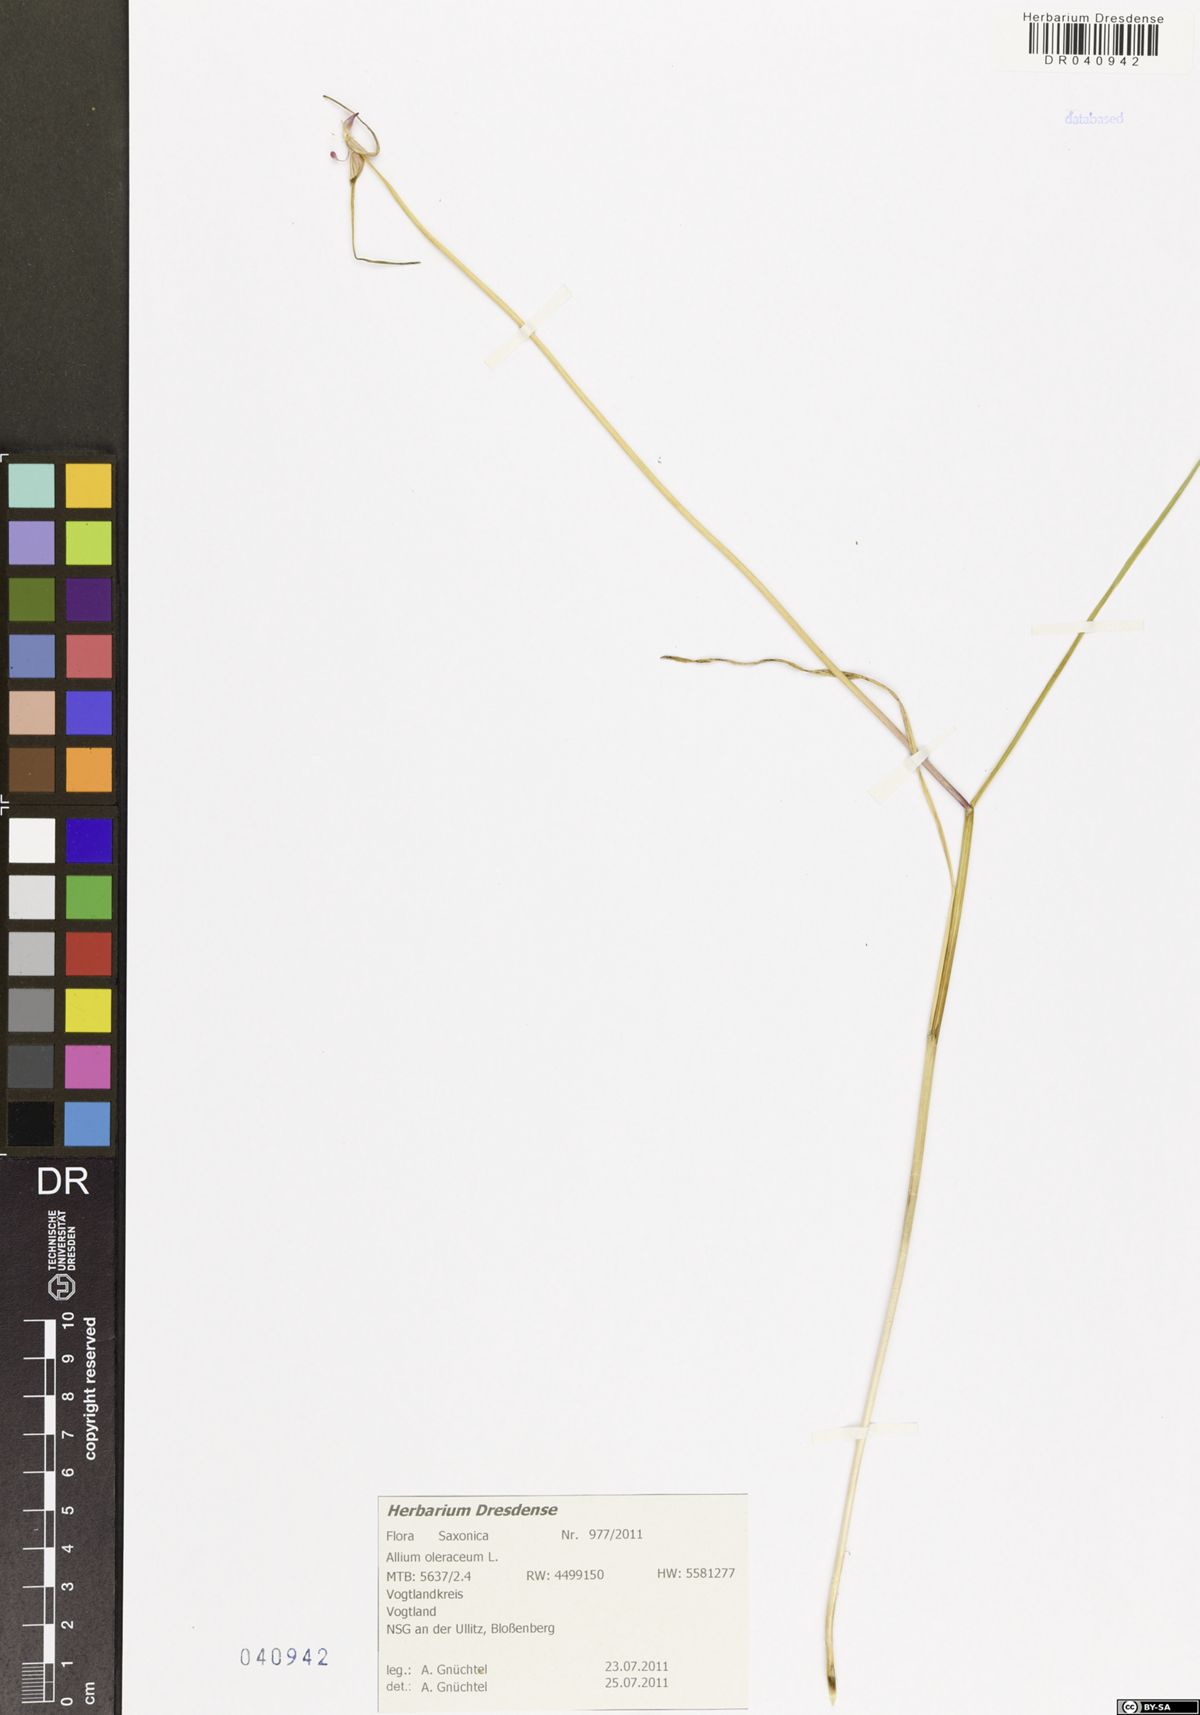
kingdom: Plantae
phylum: Tracheophyta
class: Liliopsida
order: Asparagales
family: Amaryllidaceae
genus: Allium
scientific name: Allium oleraceum
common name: Field garlic
